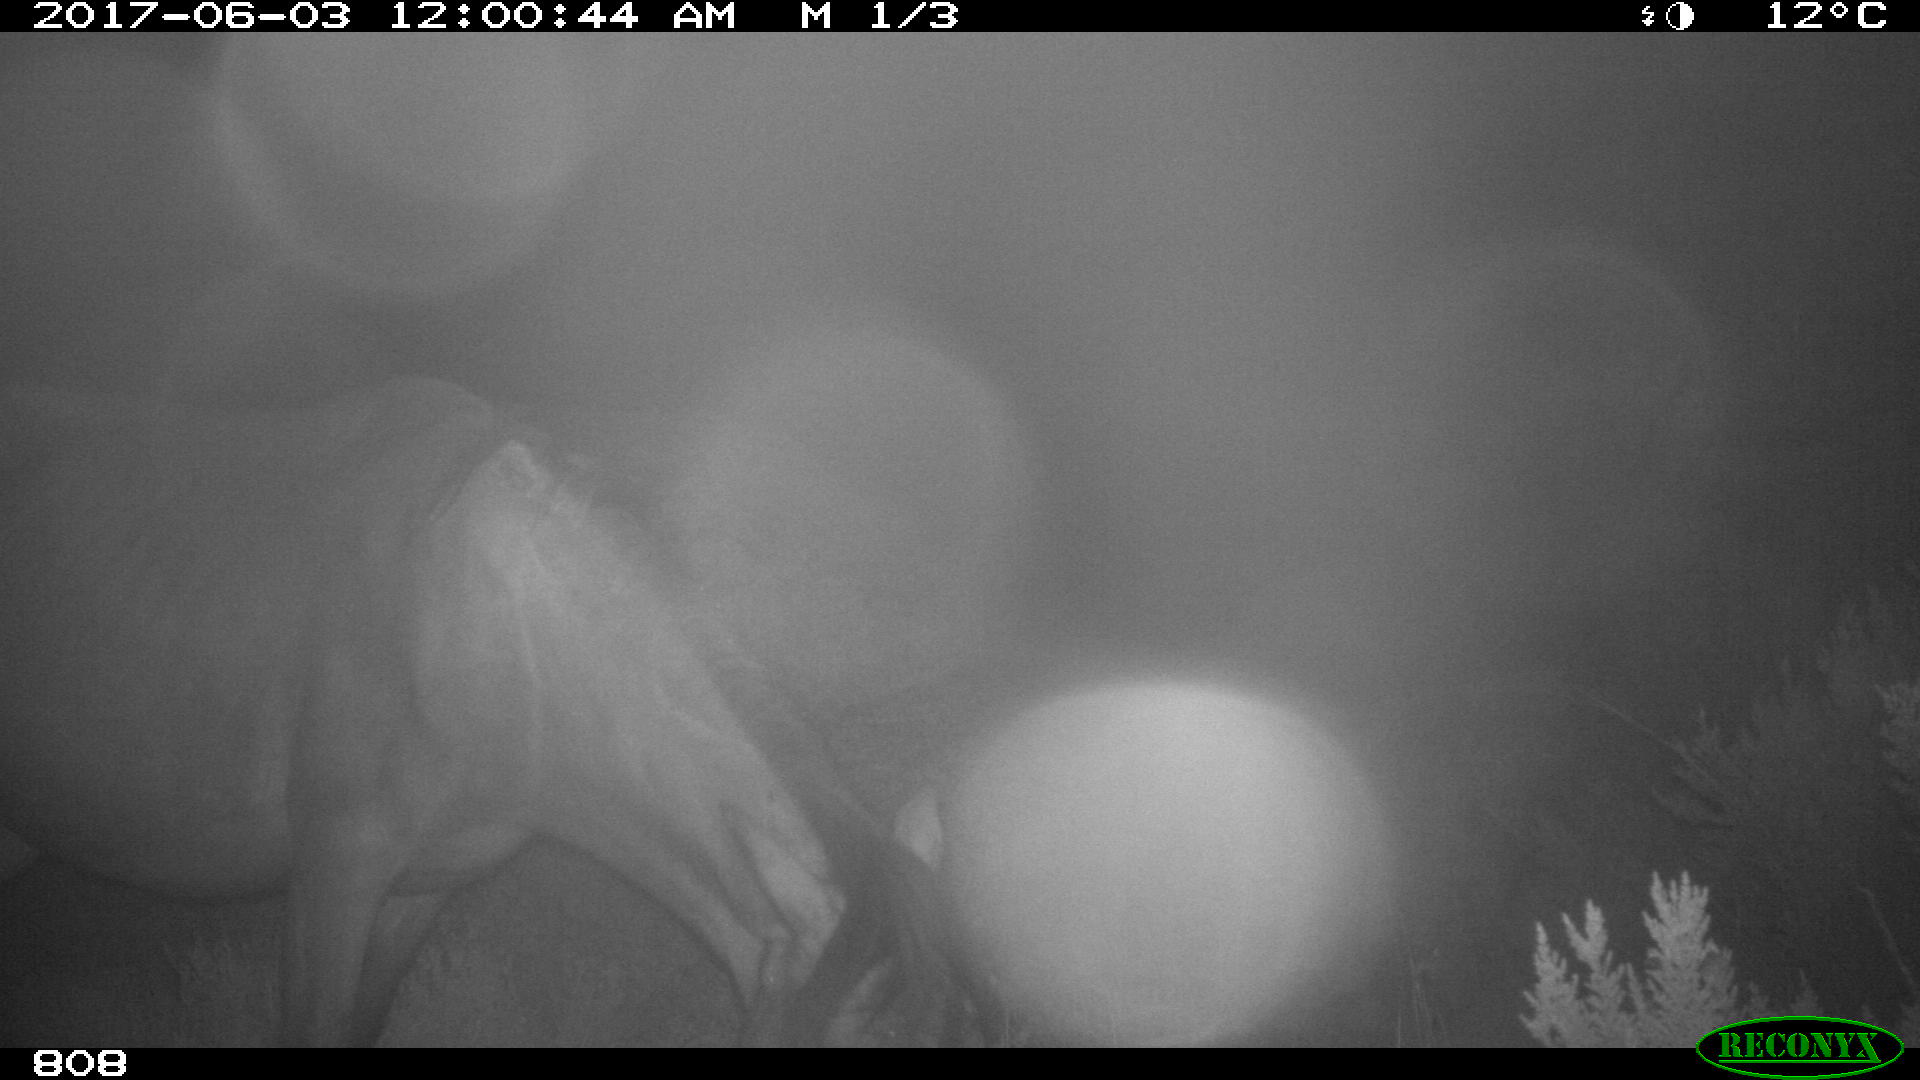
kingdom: Animalia
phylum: Chordata
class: Mammalia
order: Perissodactyla
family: Equidae
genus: Equus
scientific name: Equus caballus
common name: Horse
